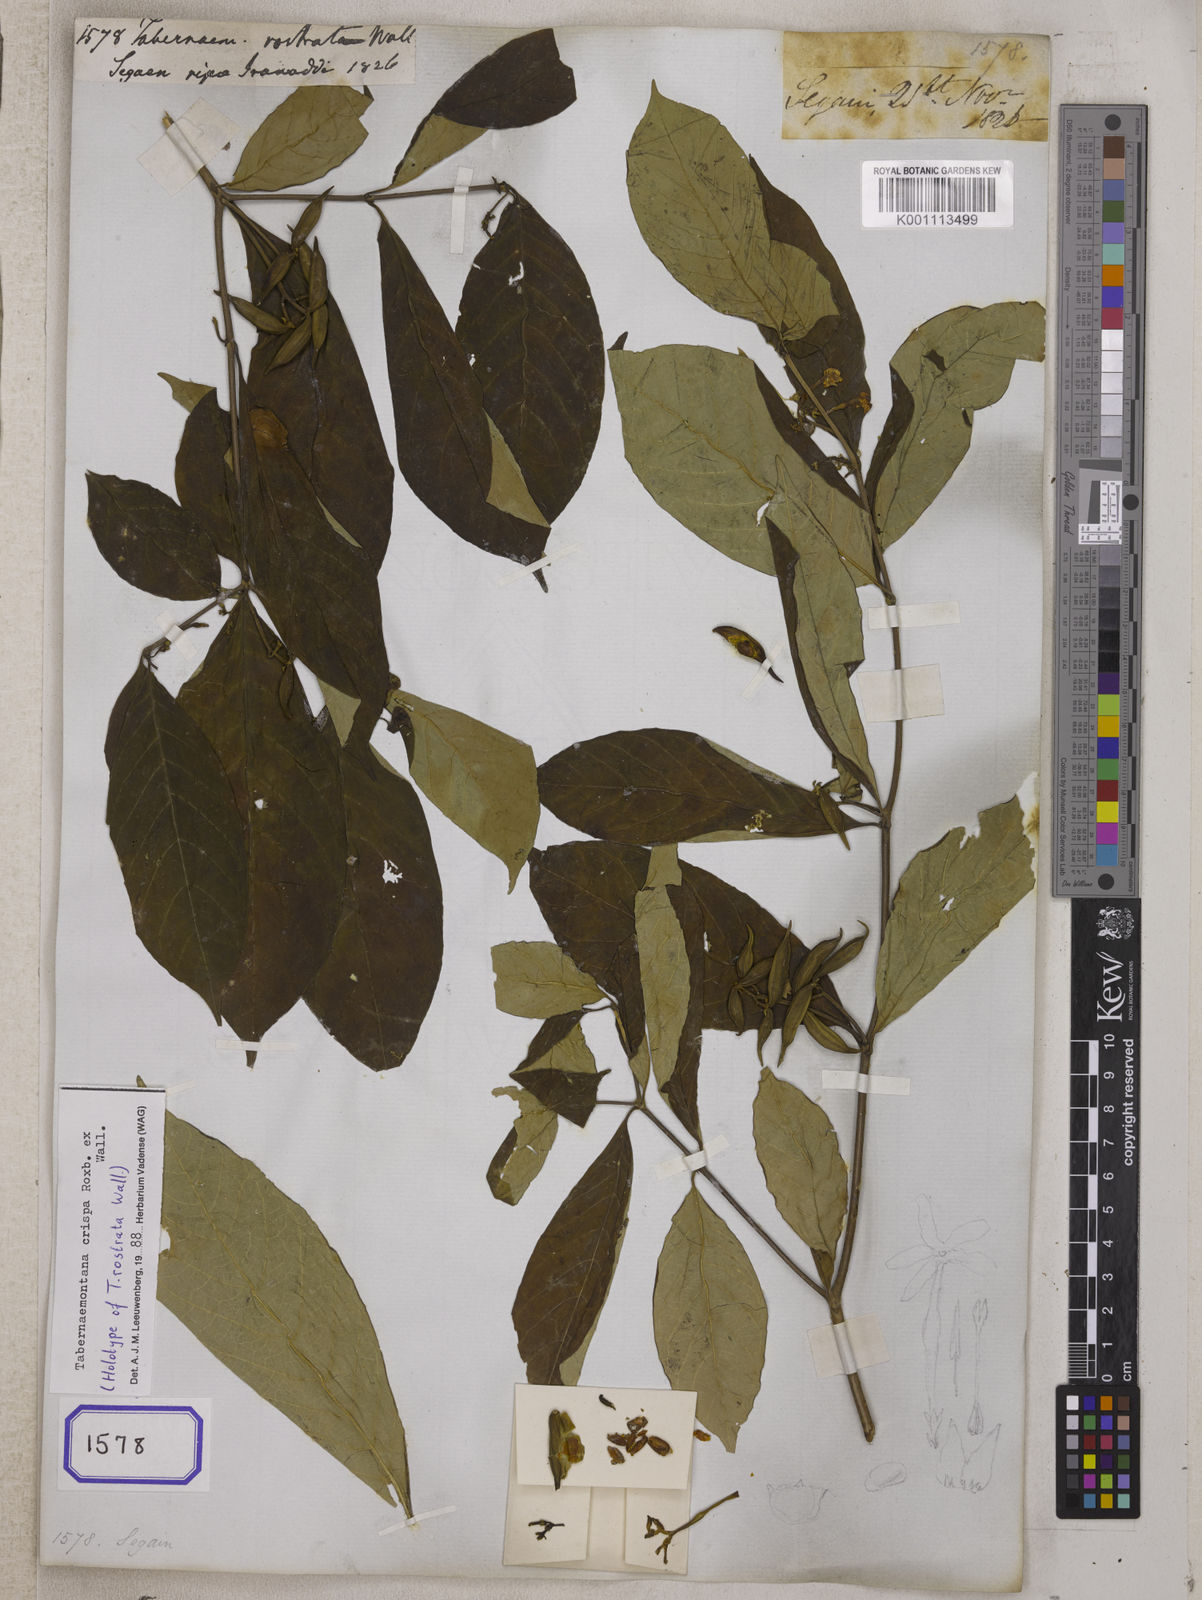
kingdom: Plantae
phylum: Tracheophyta
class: Magnoliopsida
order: Gentianales
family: Apocynaceae
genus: Tabernaemontana
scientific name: Tabernaemontana rostrata
